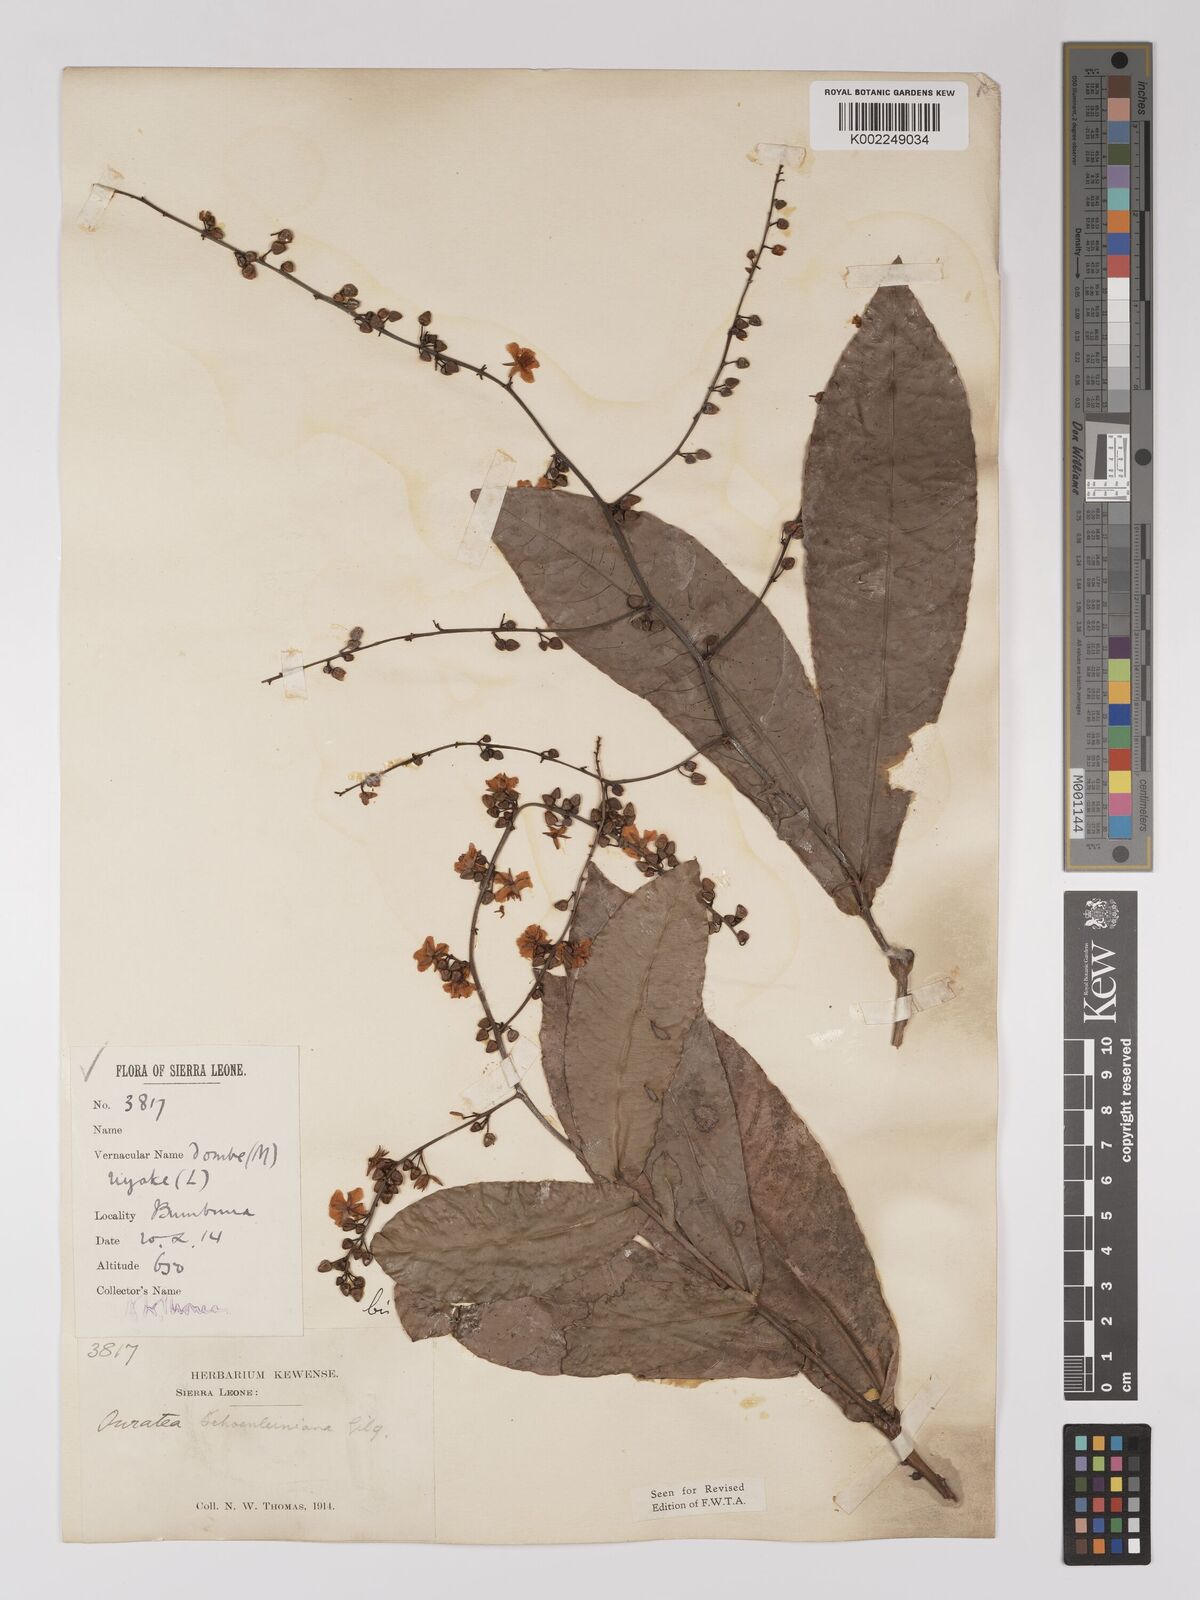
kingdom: Plantae
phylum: Tracheophyta
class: Magnoliopsida
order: Malpighiales
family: Ochnaceae
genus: Campylospermum
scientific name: Campylospermum schoenleinianum
